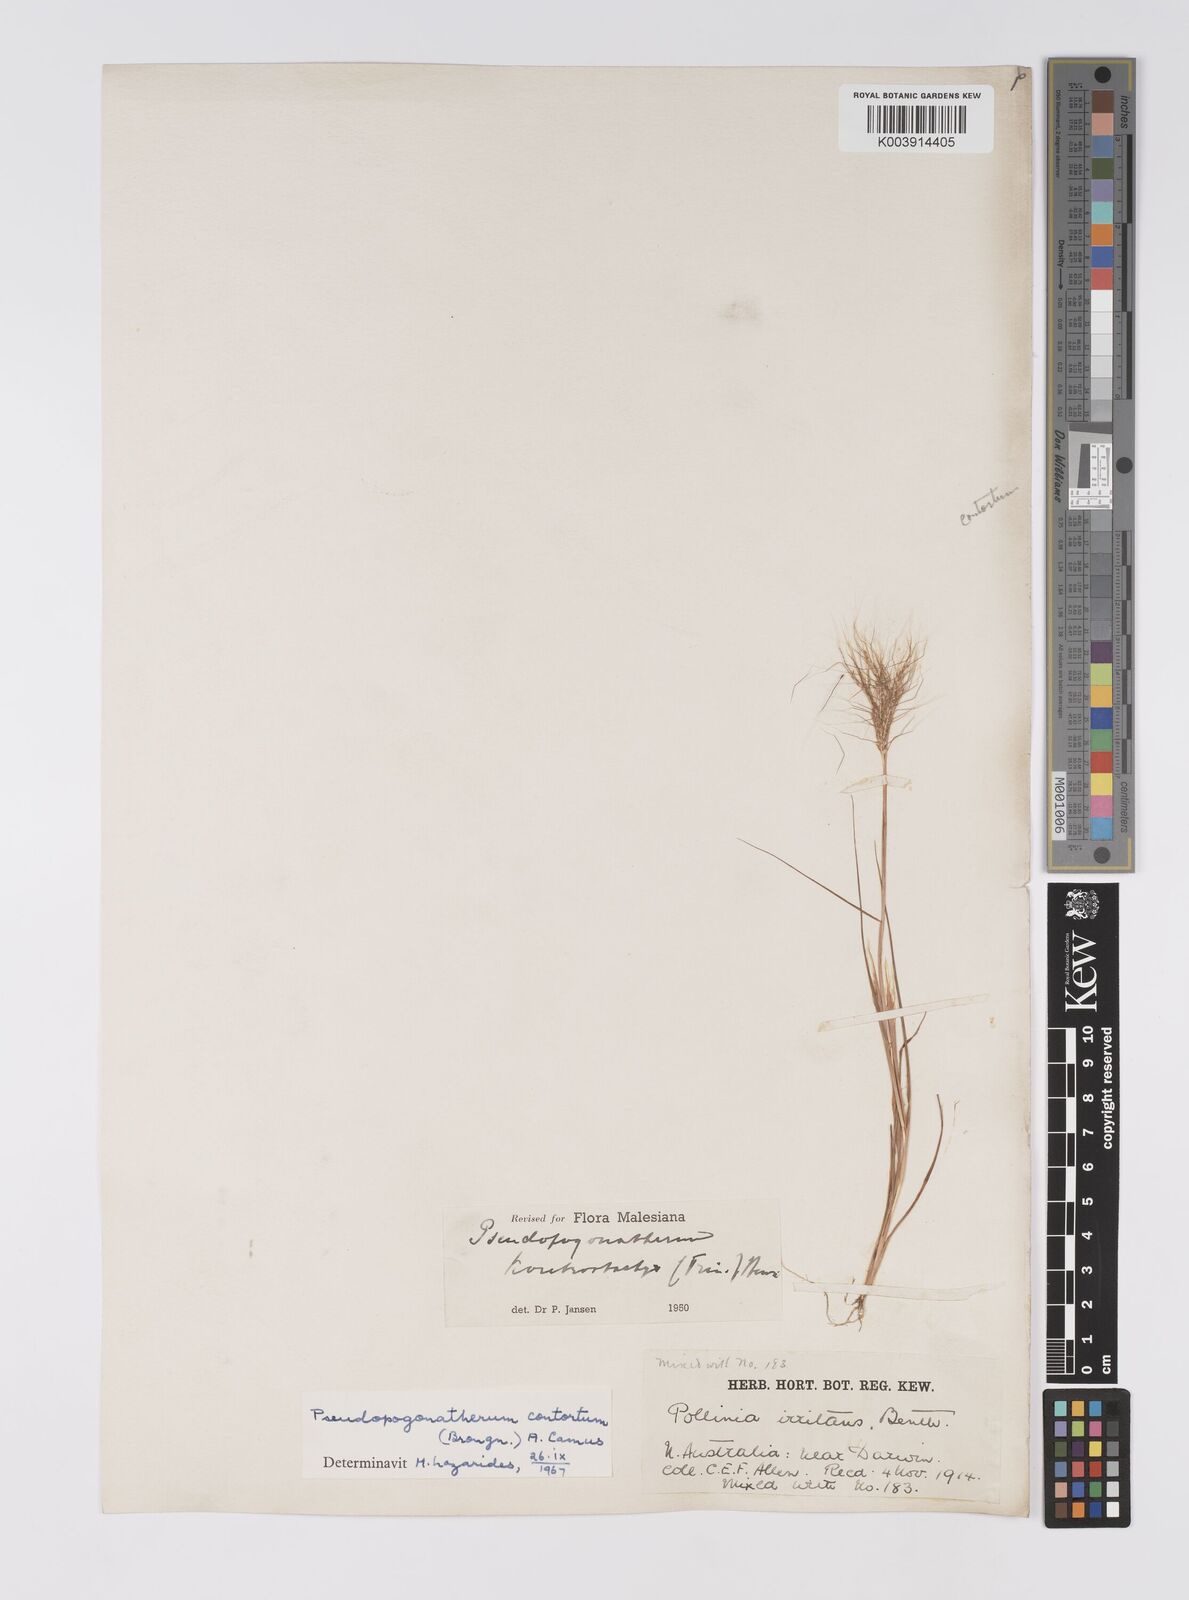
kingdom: Plantae
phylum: Tracheophyta
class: Liliopsida
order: Poales
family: Poaceae
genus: Pseudopogonatherum
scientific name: Pseudopogonatherum contortum
